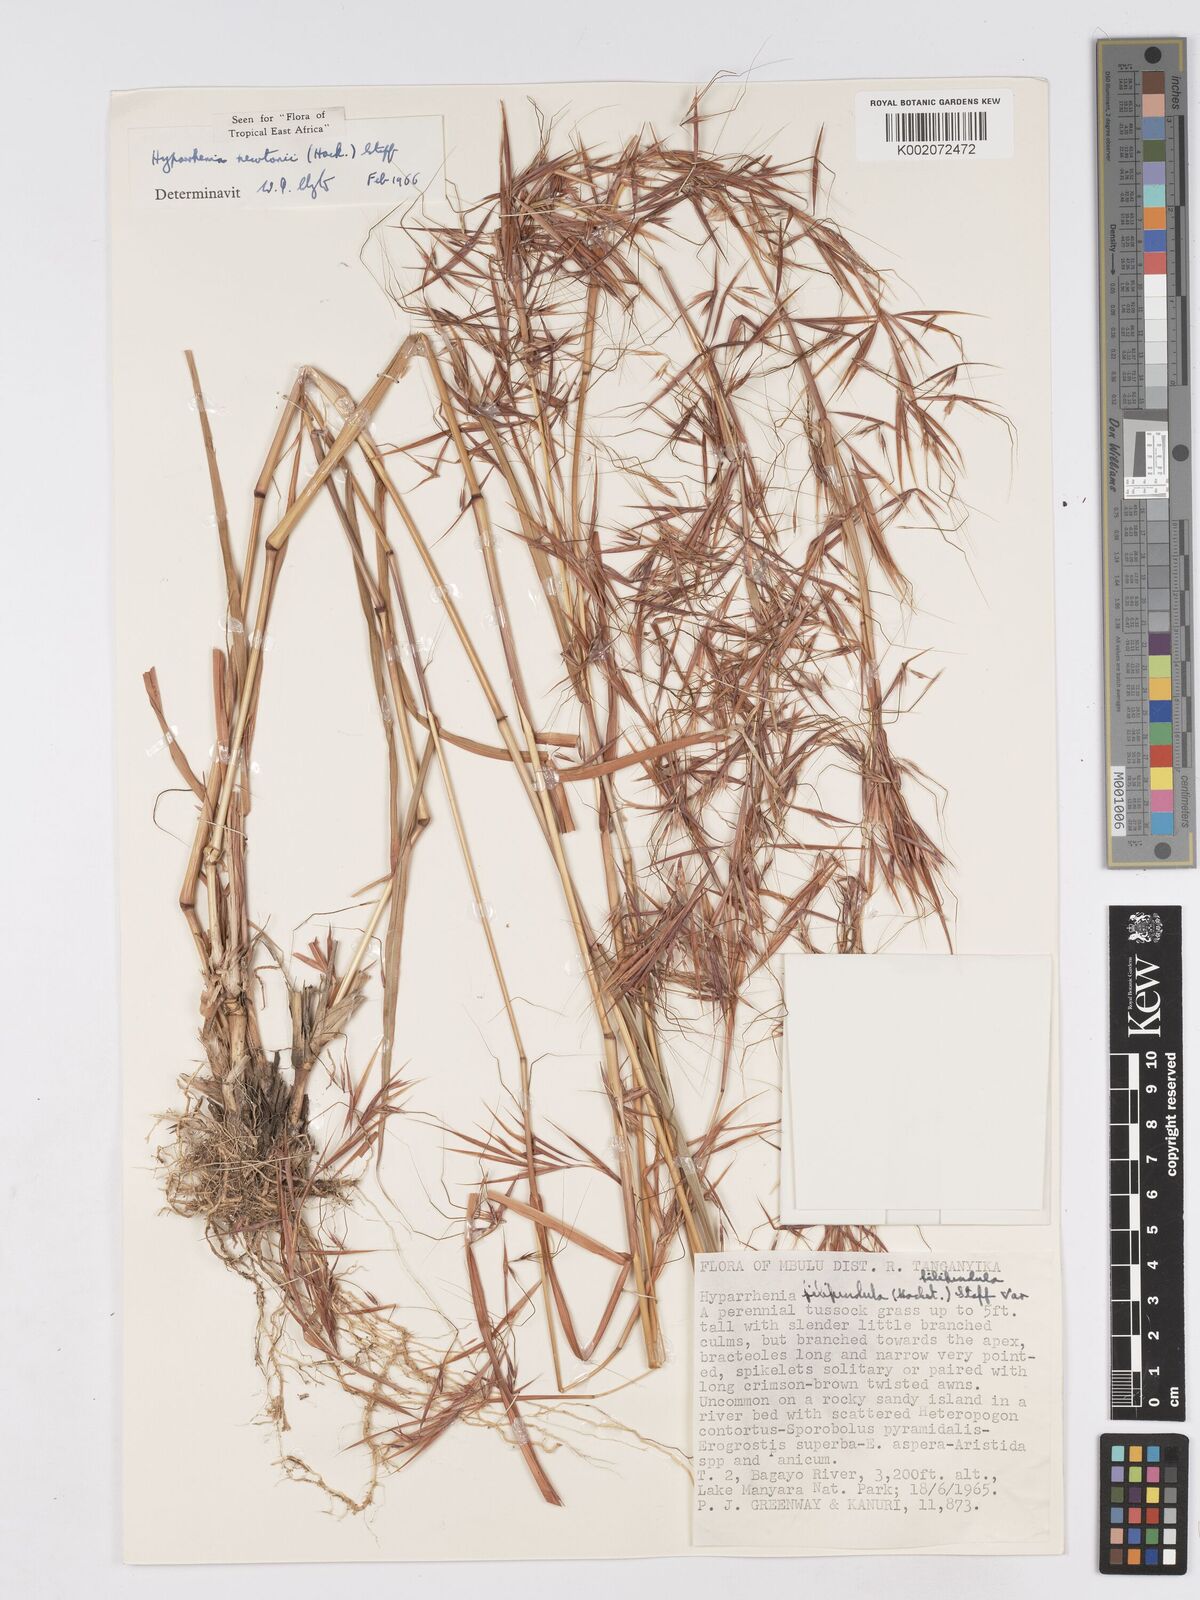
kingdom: Plantae
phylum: Tracheophyta
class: Liliopsida
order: Poales
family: Poaceae
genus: Hyparrhenia
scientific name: Hyparrhenia newtonii
